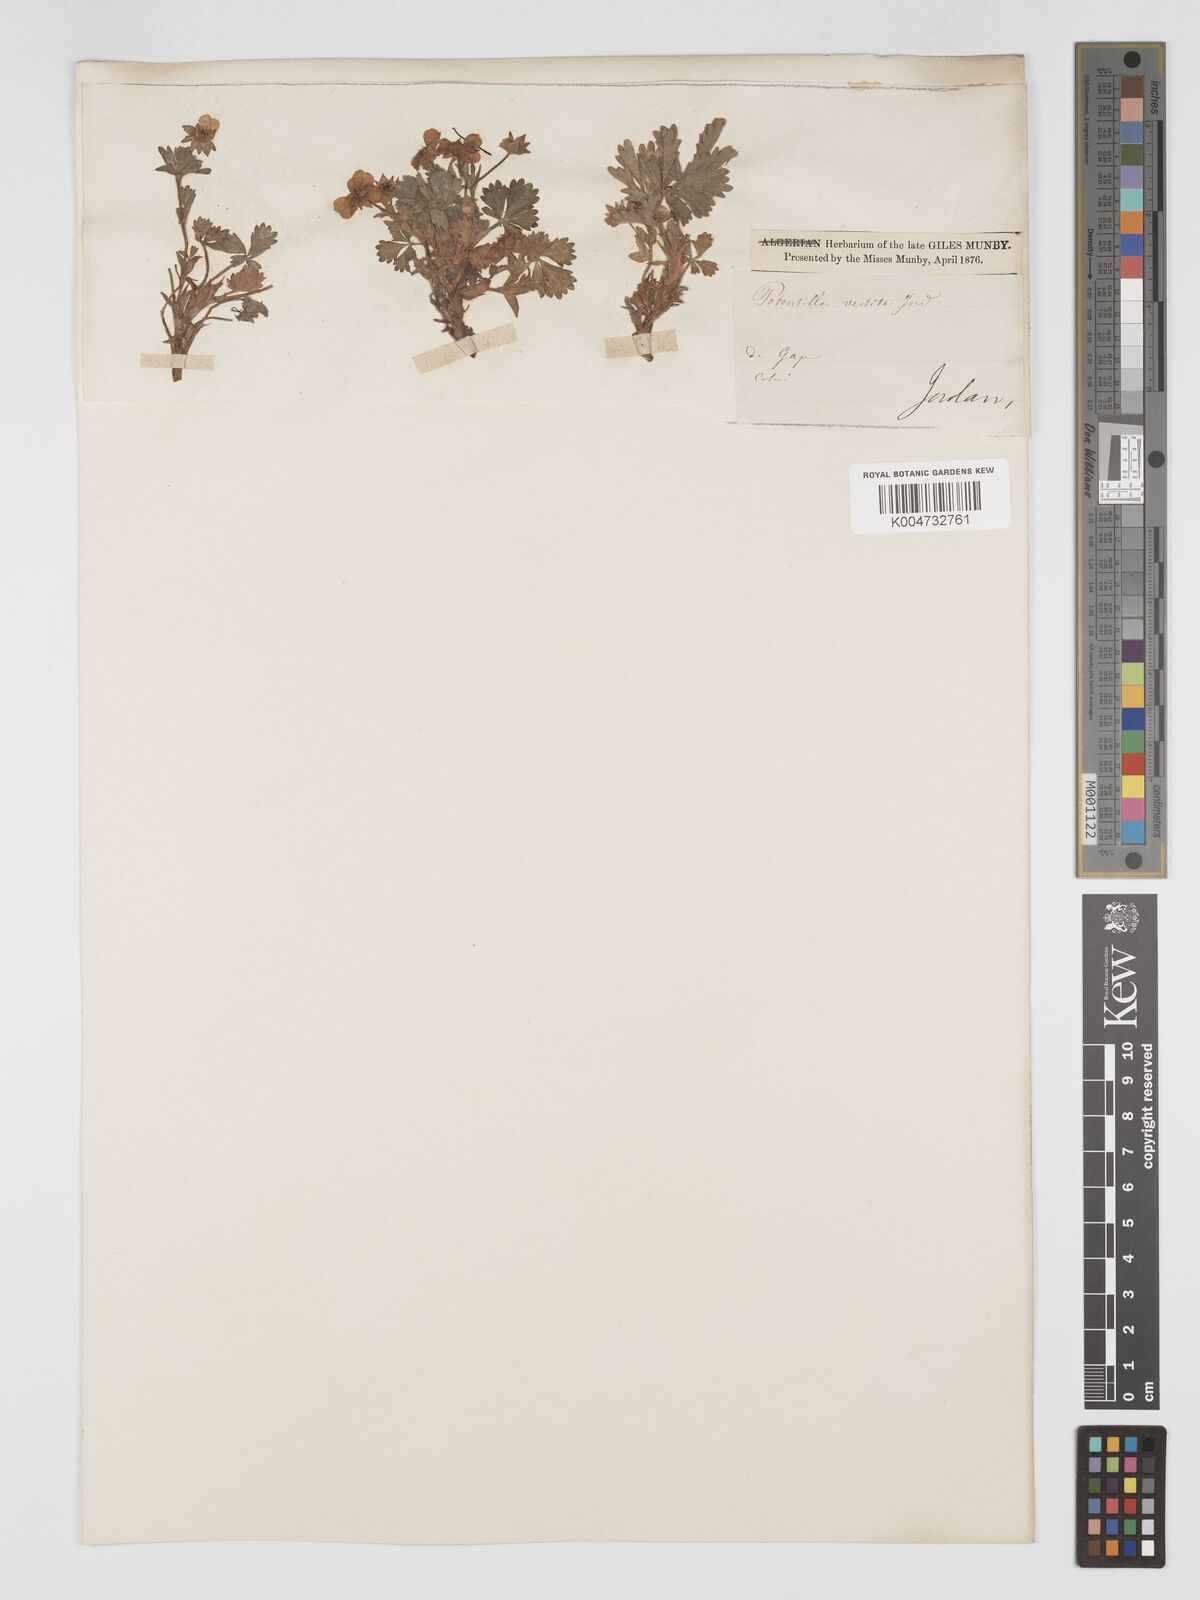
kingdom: Plantae
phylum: Tracheophyta
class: Magnoliopsida
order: Rosales
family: Rosaceae
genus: Potentilla
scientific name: Potentilla
